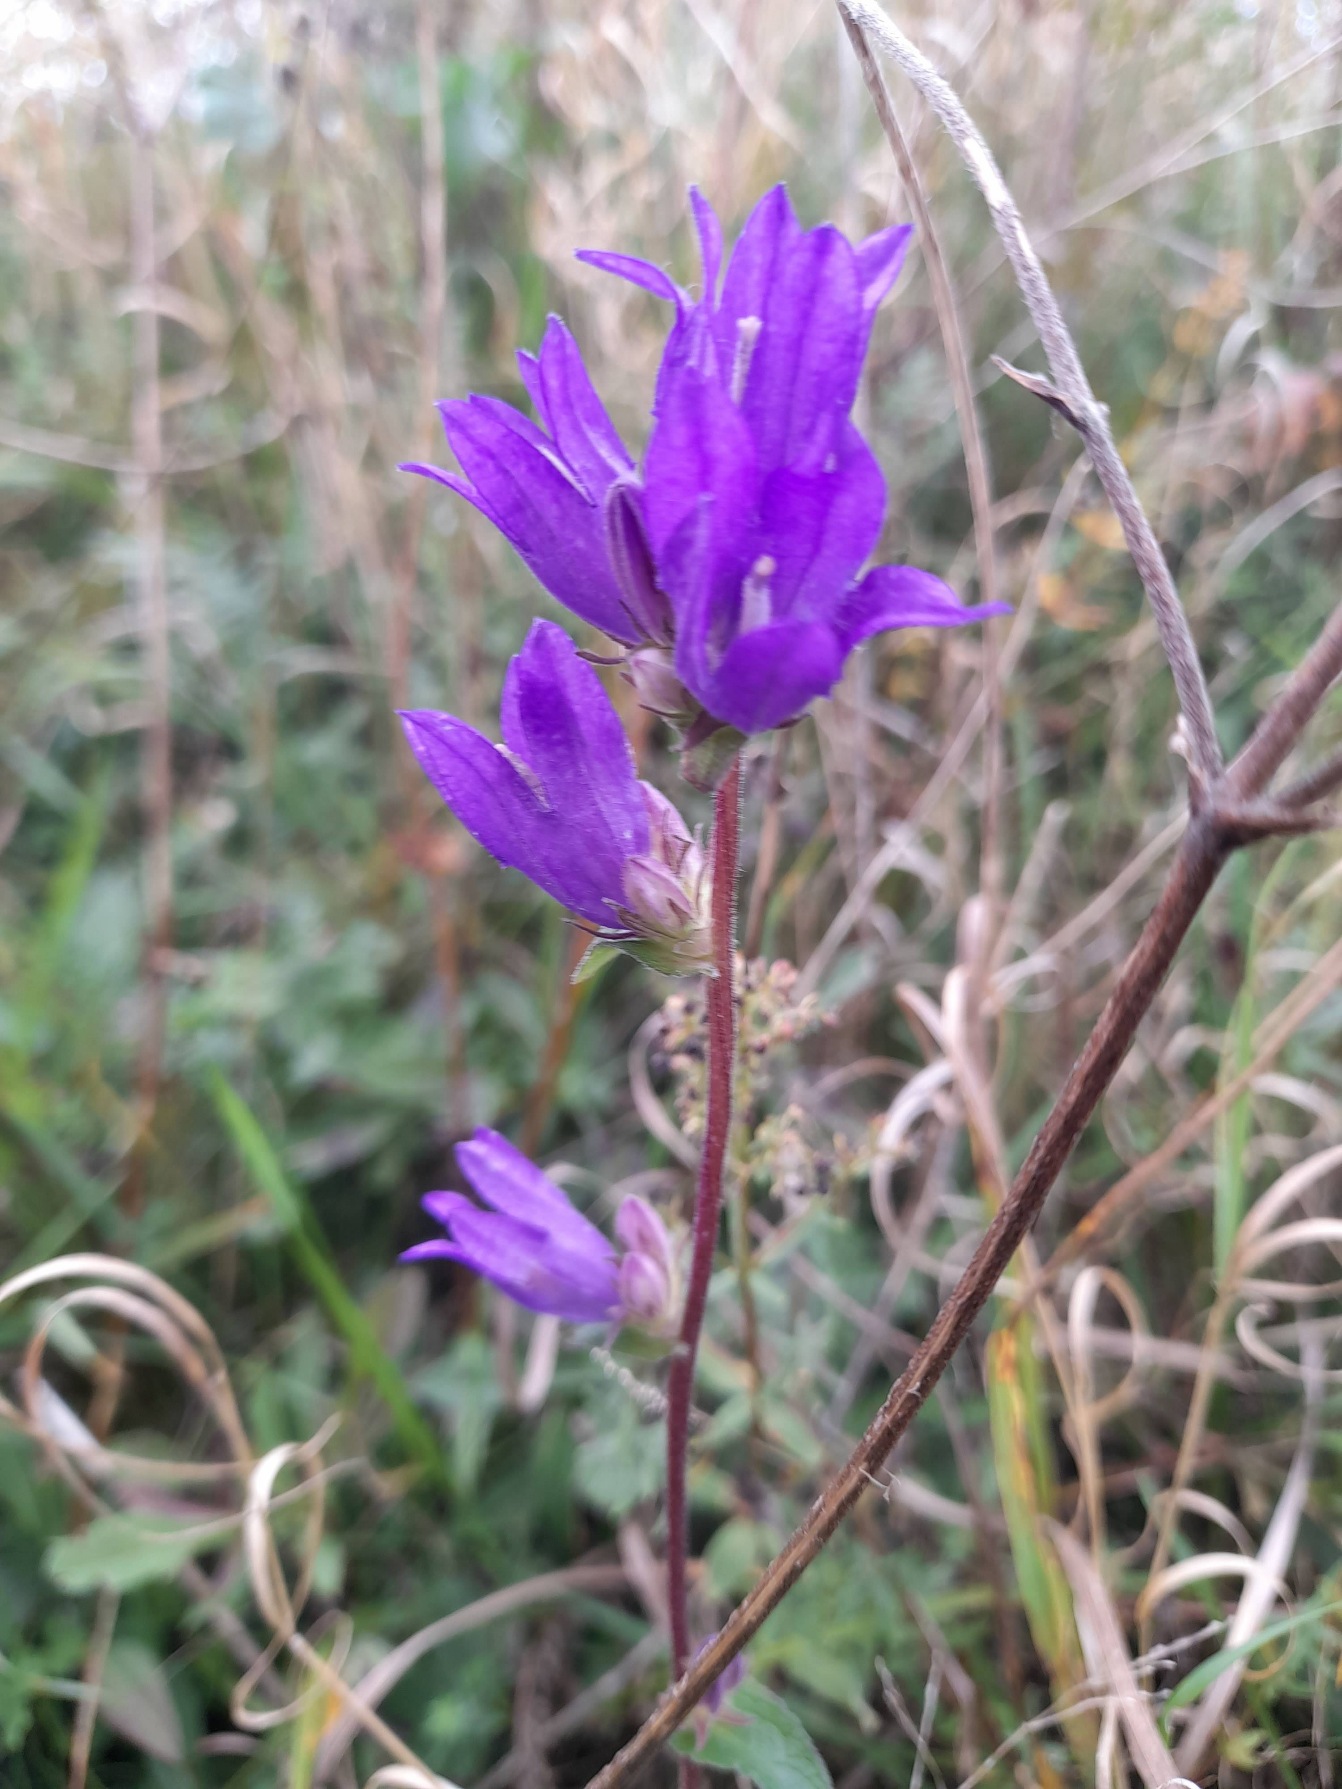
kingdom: Plantae
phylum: Tracheophyta
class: Magnoliopsida
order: Asterales
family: Campanulaceae
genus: Campanula
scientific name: Campanula glomerata
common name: Nøgleblomstret klokke
